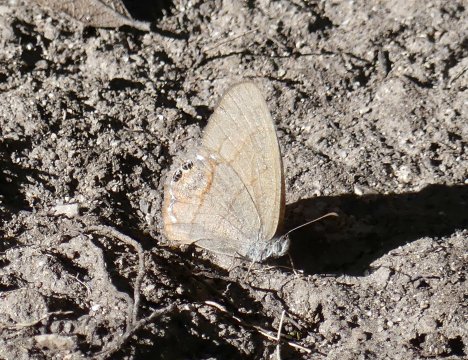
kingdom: Animalia
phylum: Arthropoda
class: Insecta
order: Lepidoptera
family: Nymphalidae
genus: Euptychia
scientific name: Euptychia pyracmon
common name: Nabokov's Satyr
